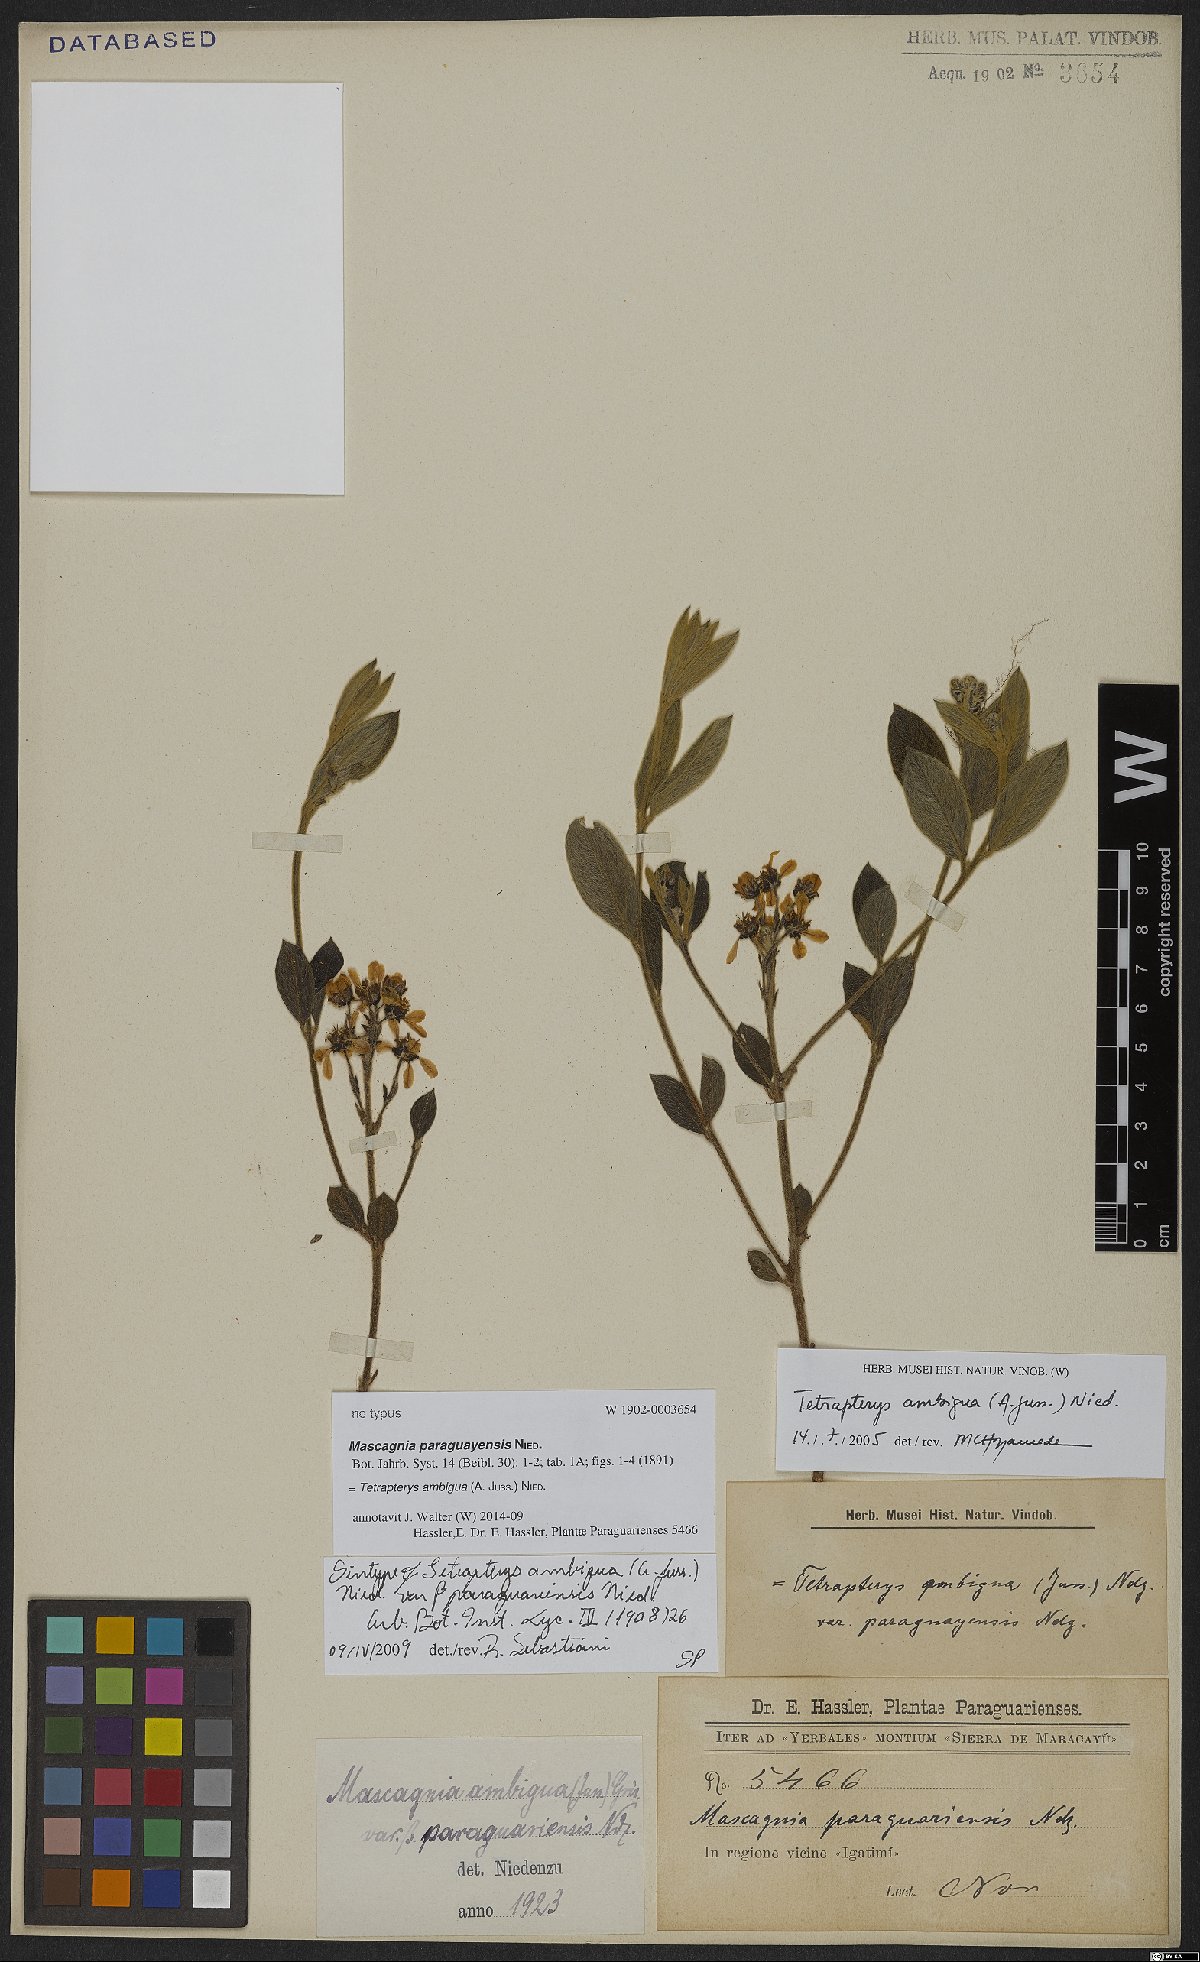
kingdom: Plantae
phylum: Tracheophyta
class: Magnoliopsida
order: Malpighiales
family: Malpighiaceae
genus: Glicophyllum
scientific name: Glicophyllum ambiguum
